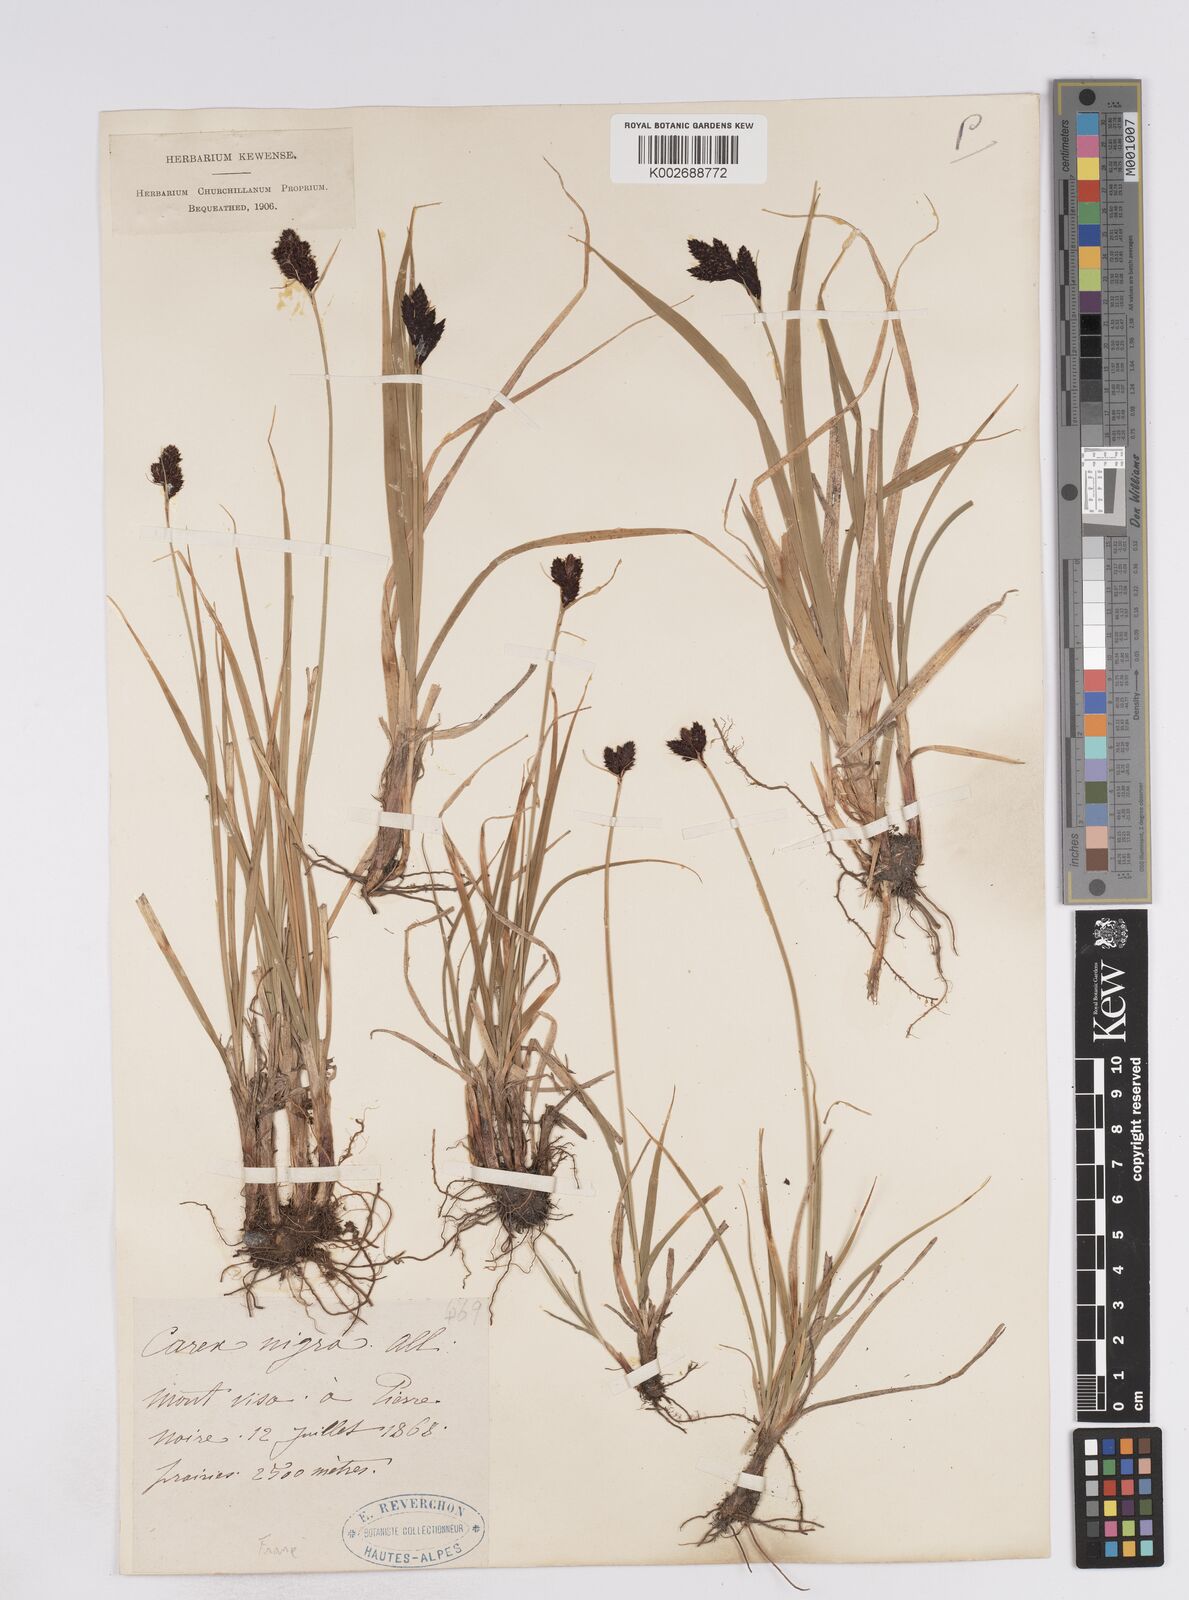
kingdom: Plantae
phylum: Tracheophyta
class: Liliopsida
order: Poales
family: Cyperaceae
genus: Carex
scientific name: Carex parviflora
